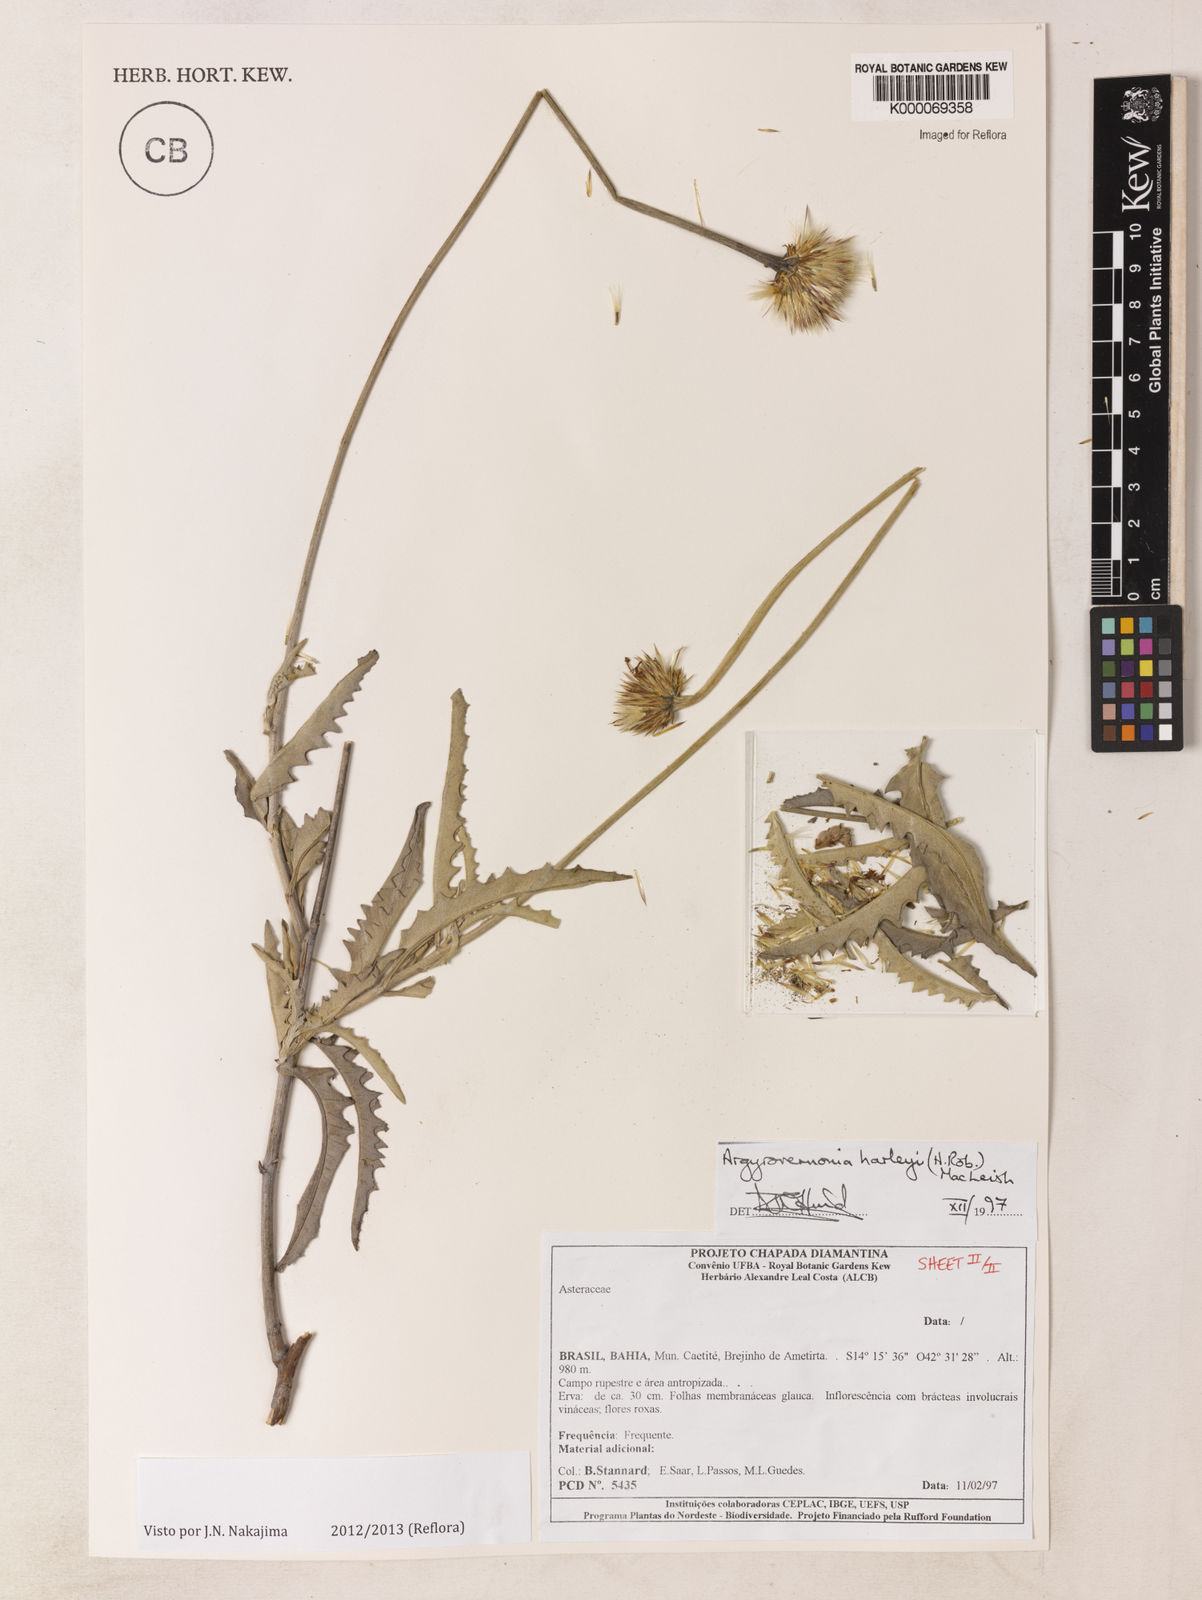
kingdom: Plantae
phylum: Tracheophyta
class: Magnoliopsida
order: Asterales
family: Asteraceae
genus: Chresta
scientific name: Chresta harleyi
